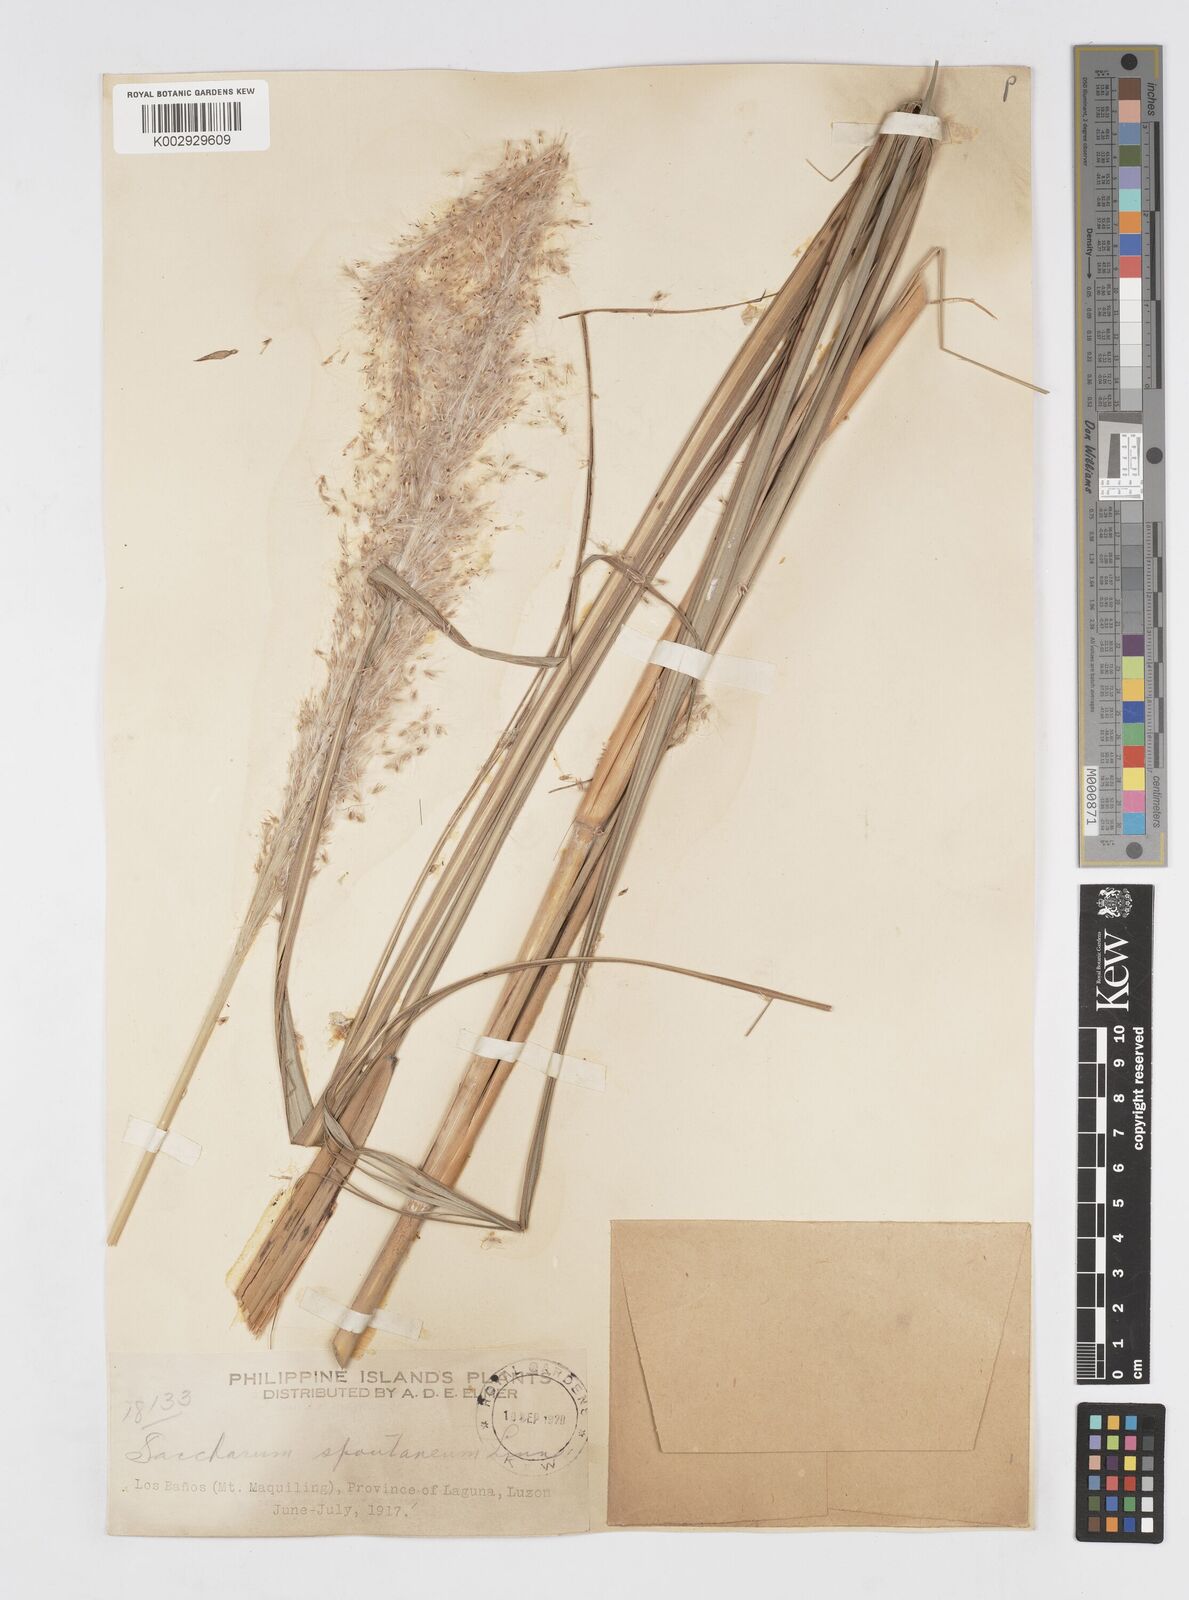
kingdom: Plantae
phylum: Tracheophyta
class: Liliopsida
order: Poales
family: Poaceae
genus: Saccharum
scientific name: Saccharum spontaneum
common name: Wild sugarcane
